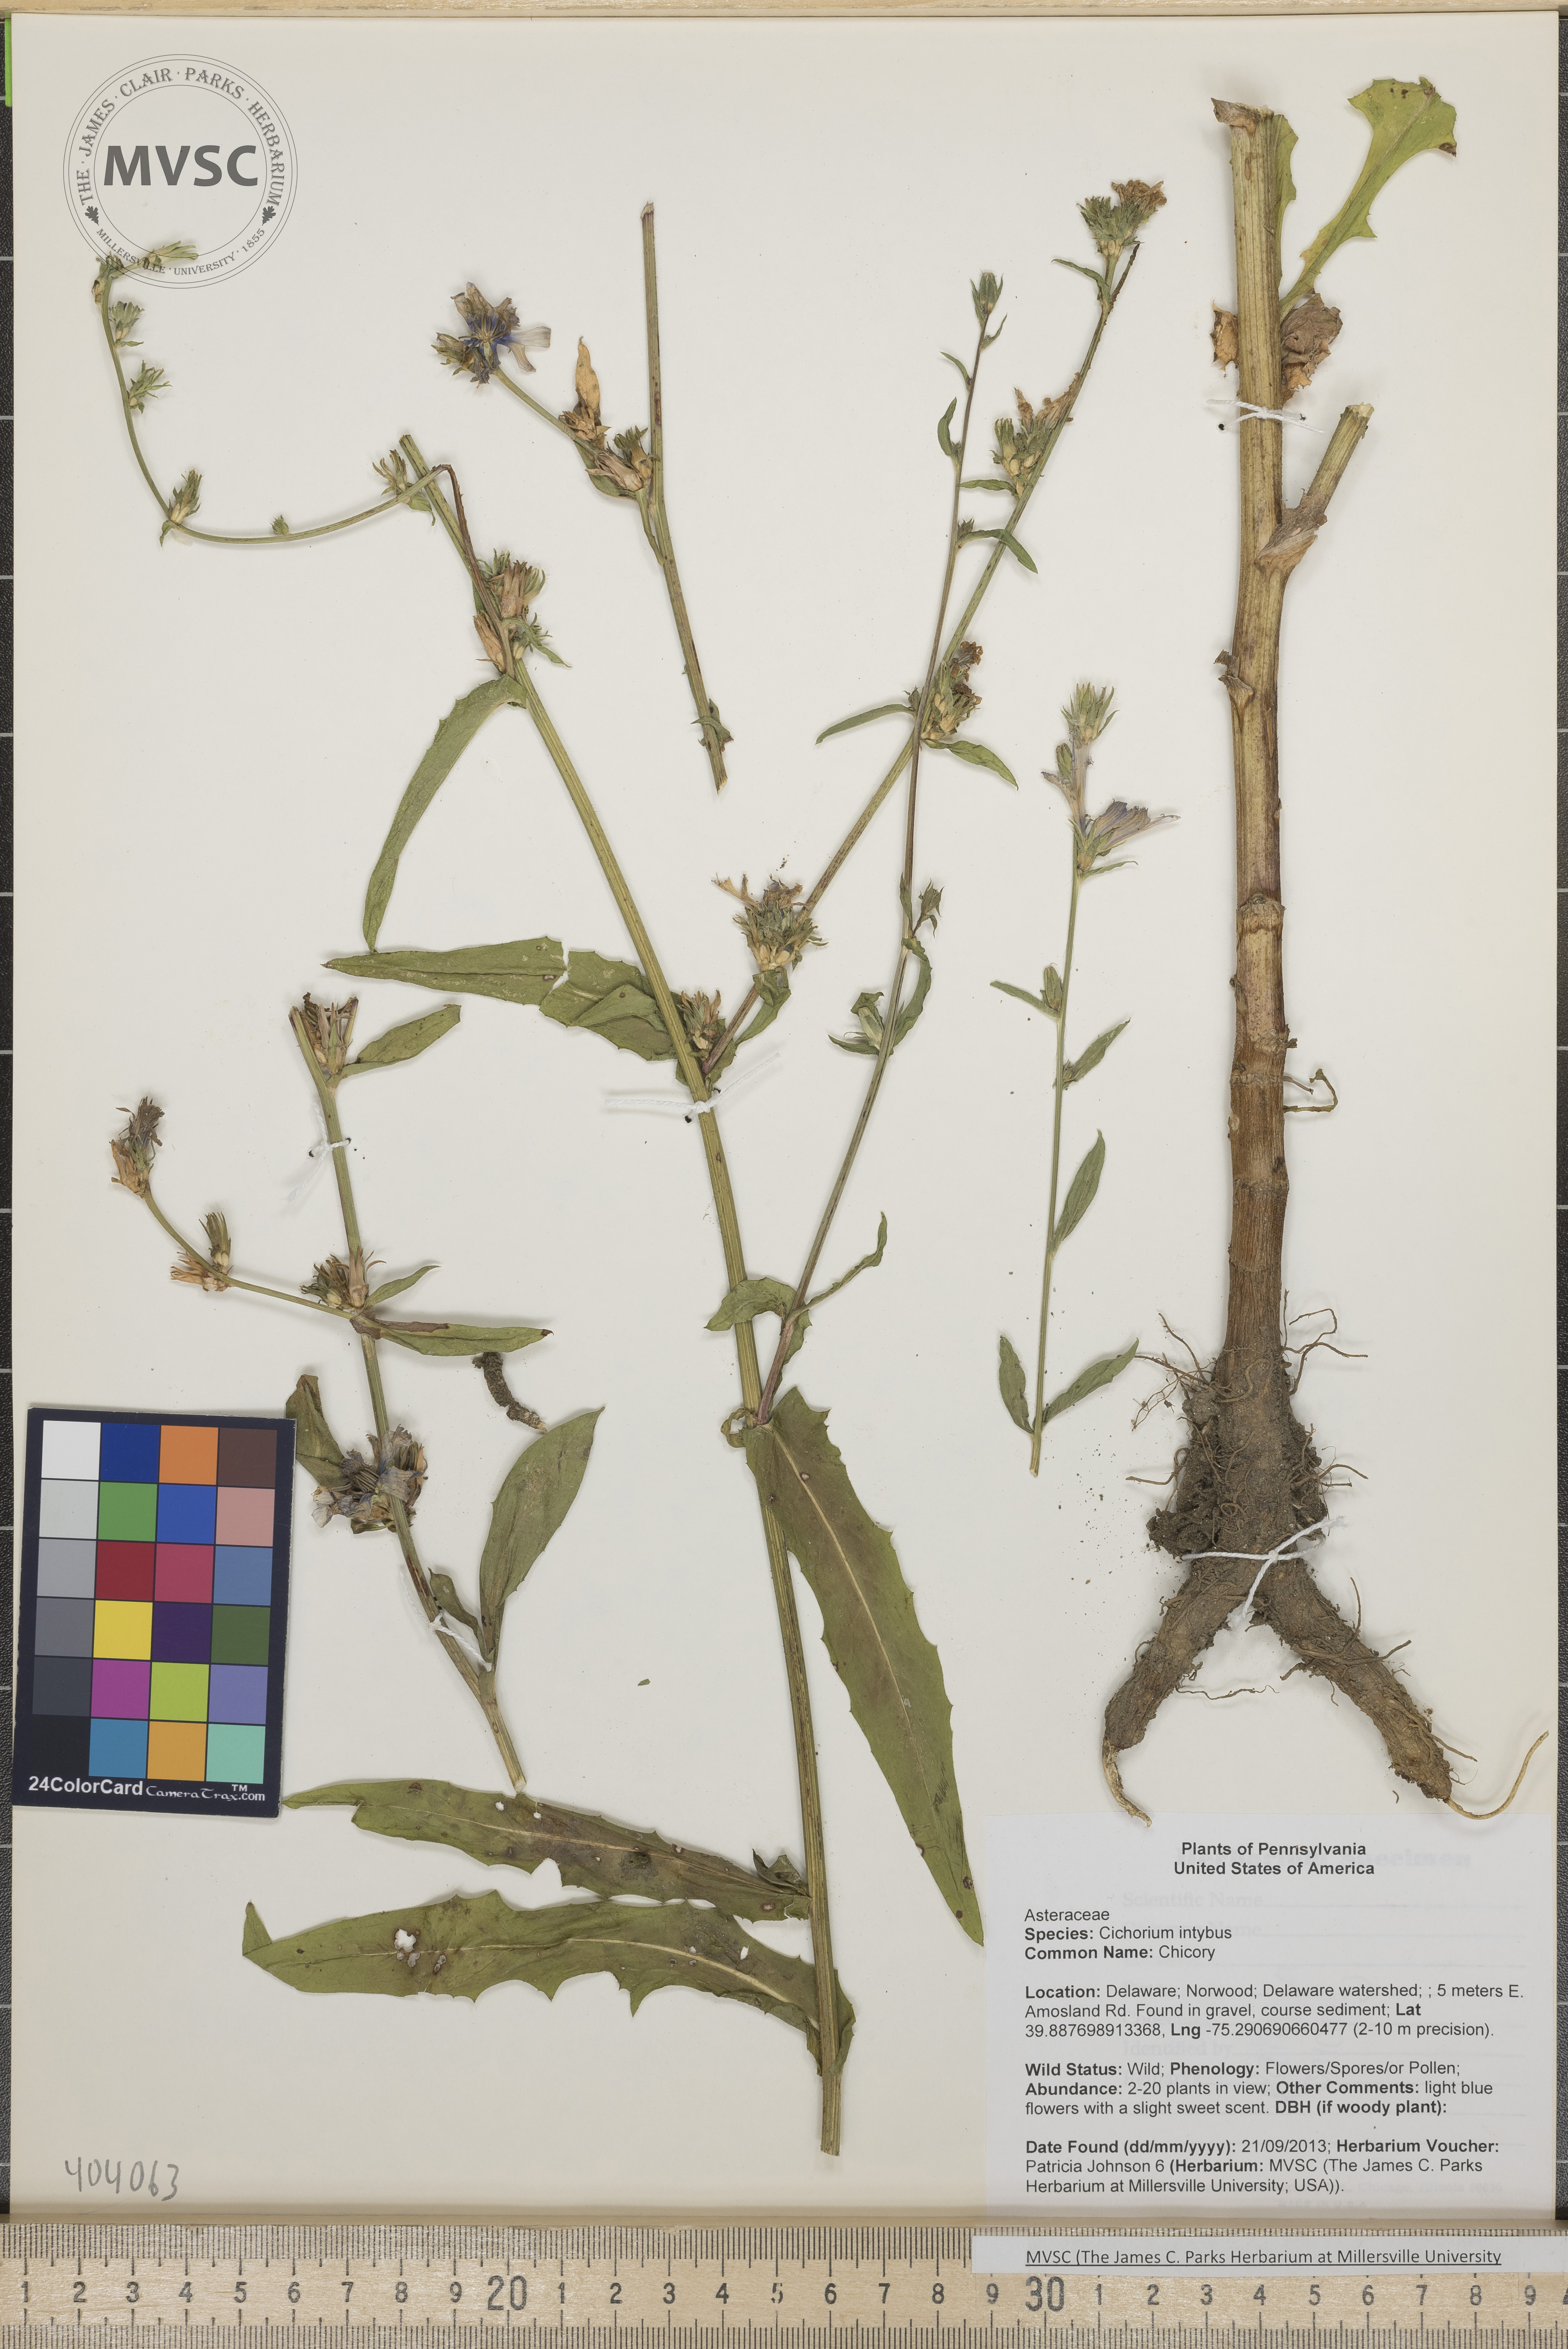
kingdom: Plantae
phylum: Tracheophyta
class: Magnoliopsida
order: Asterales
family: Asteraceae
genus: Cichorium
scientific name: Cichorium intybus
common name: Chicory
